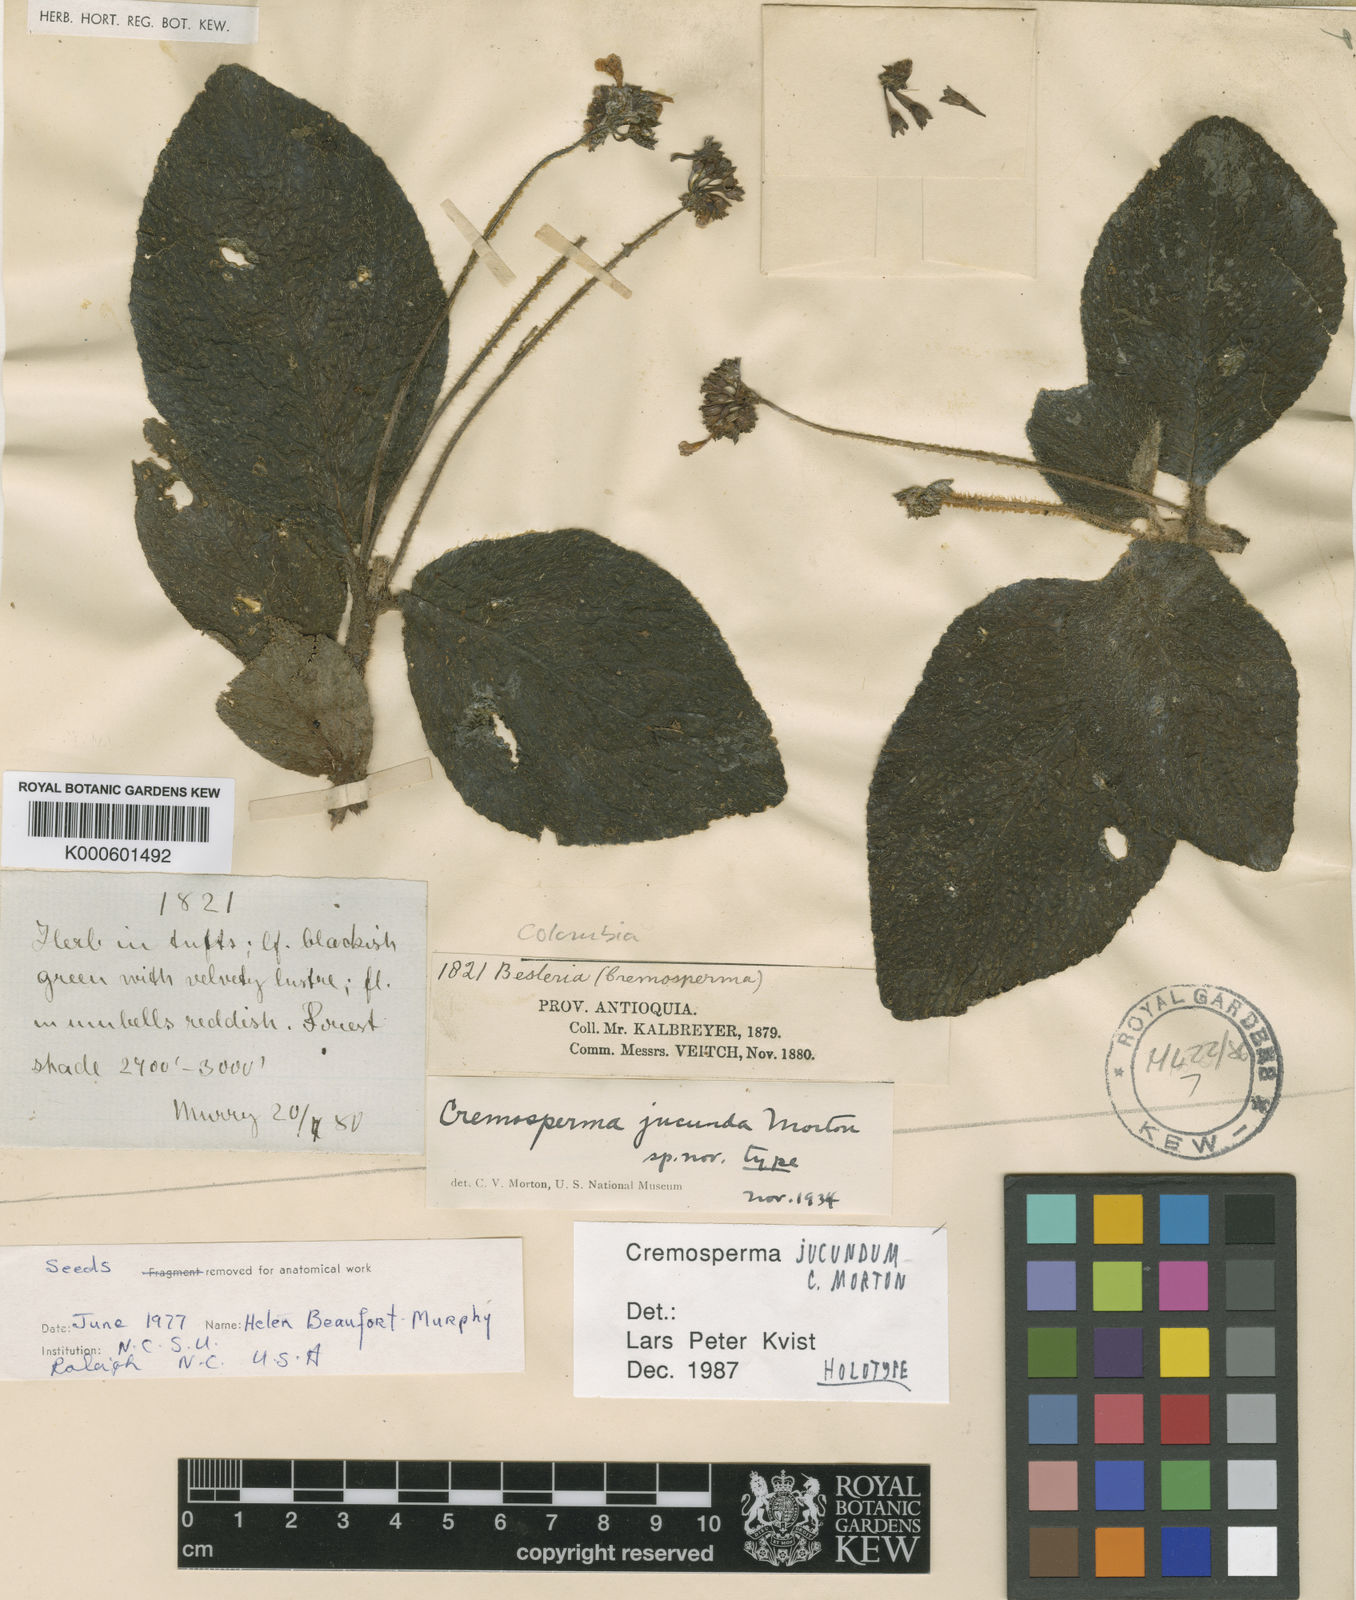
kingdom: Plantae
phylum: Tracheophyta
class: Magnoliopsida
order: Lamiales
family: Gesneriaceae
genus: Cremosperma
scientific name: Cremosperma jucundum
